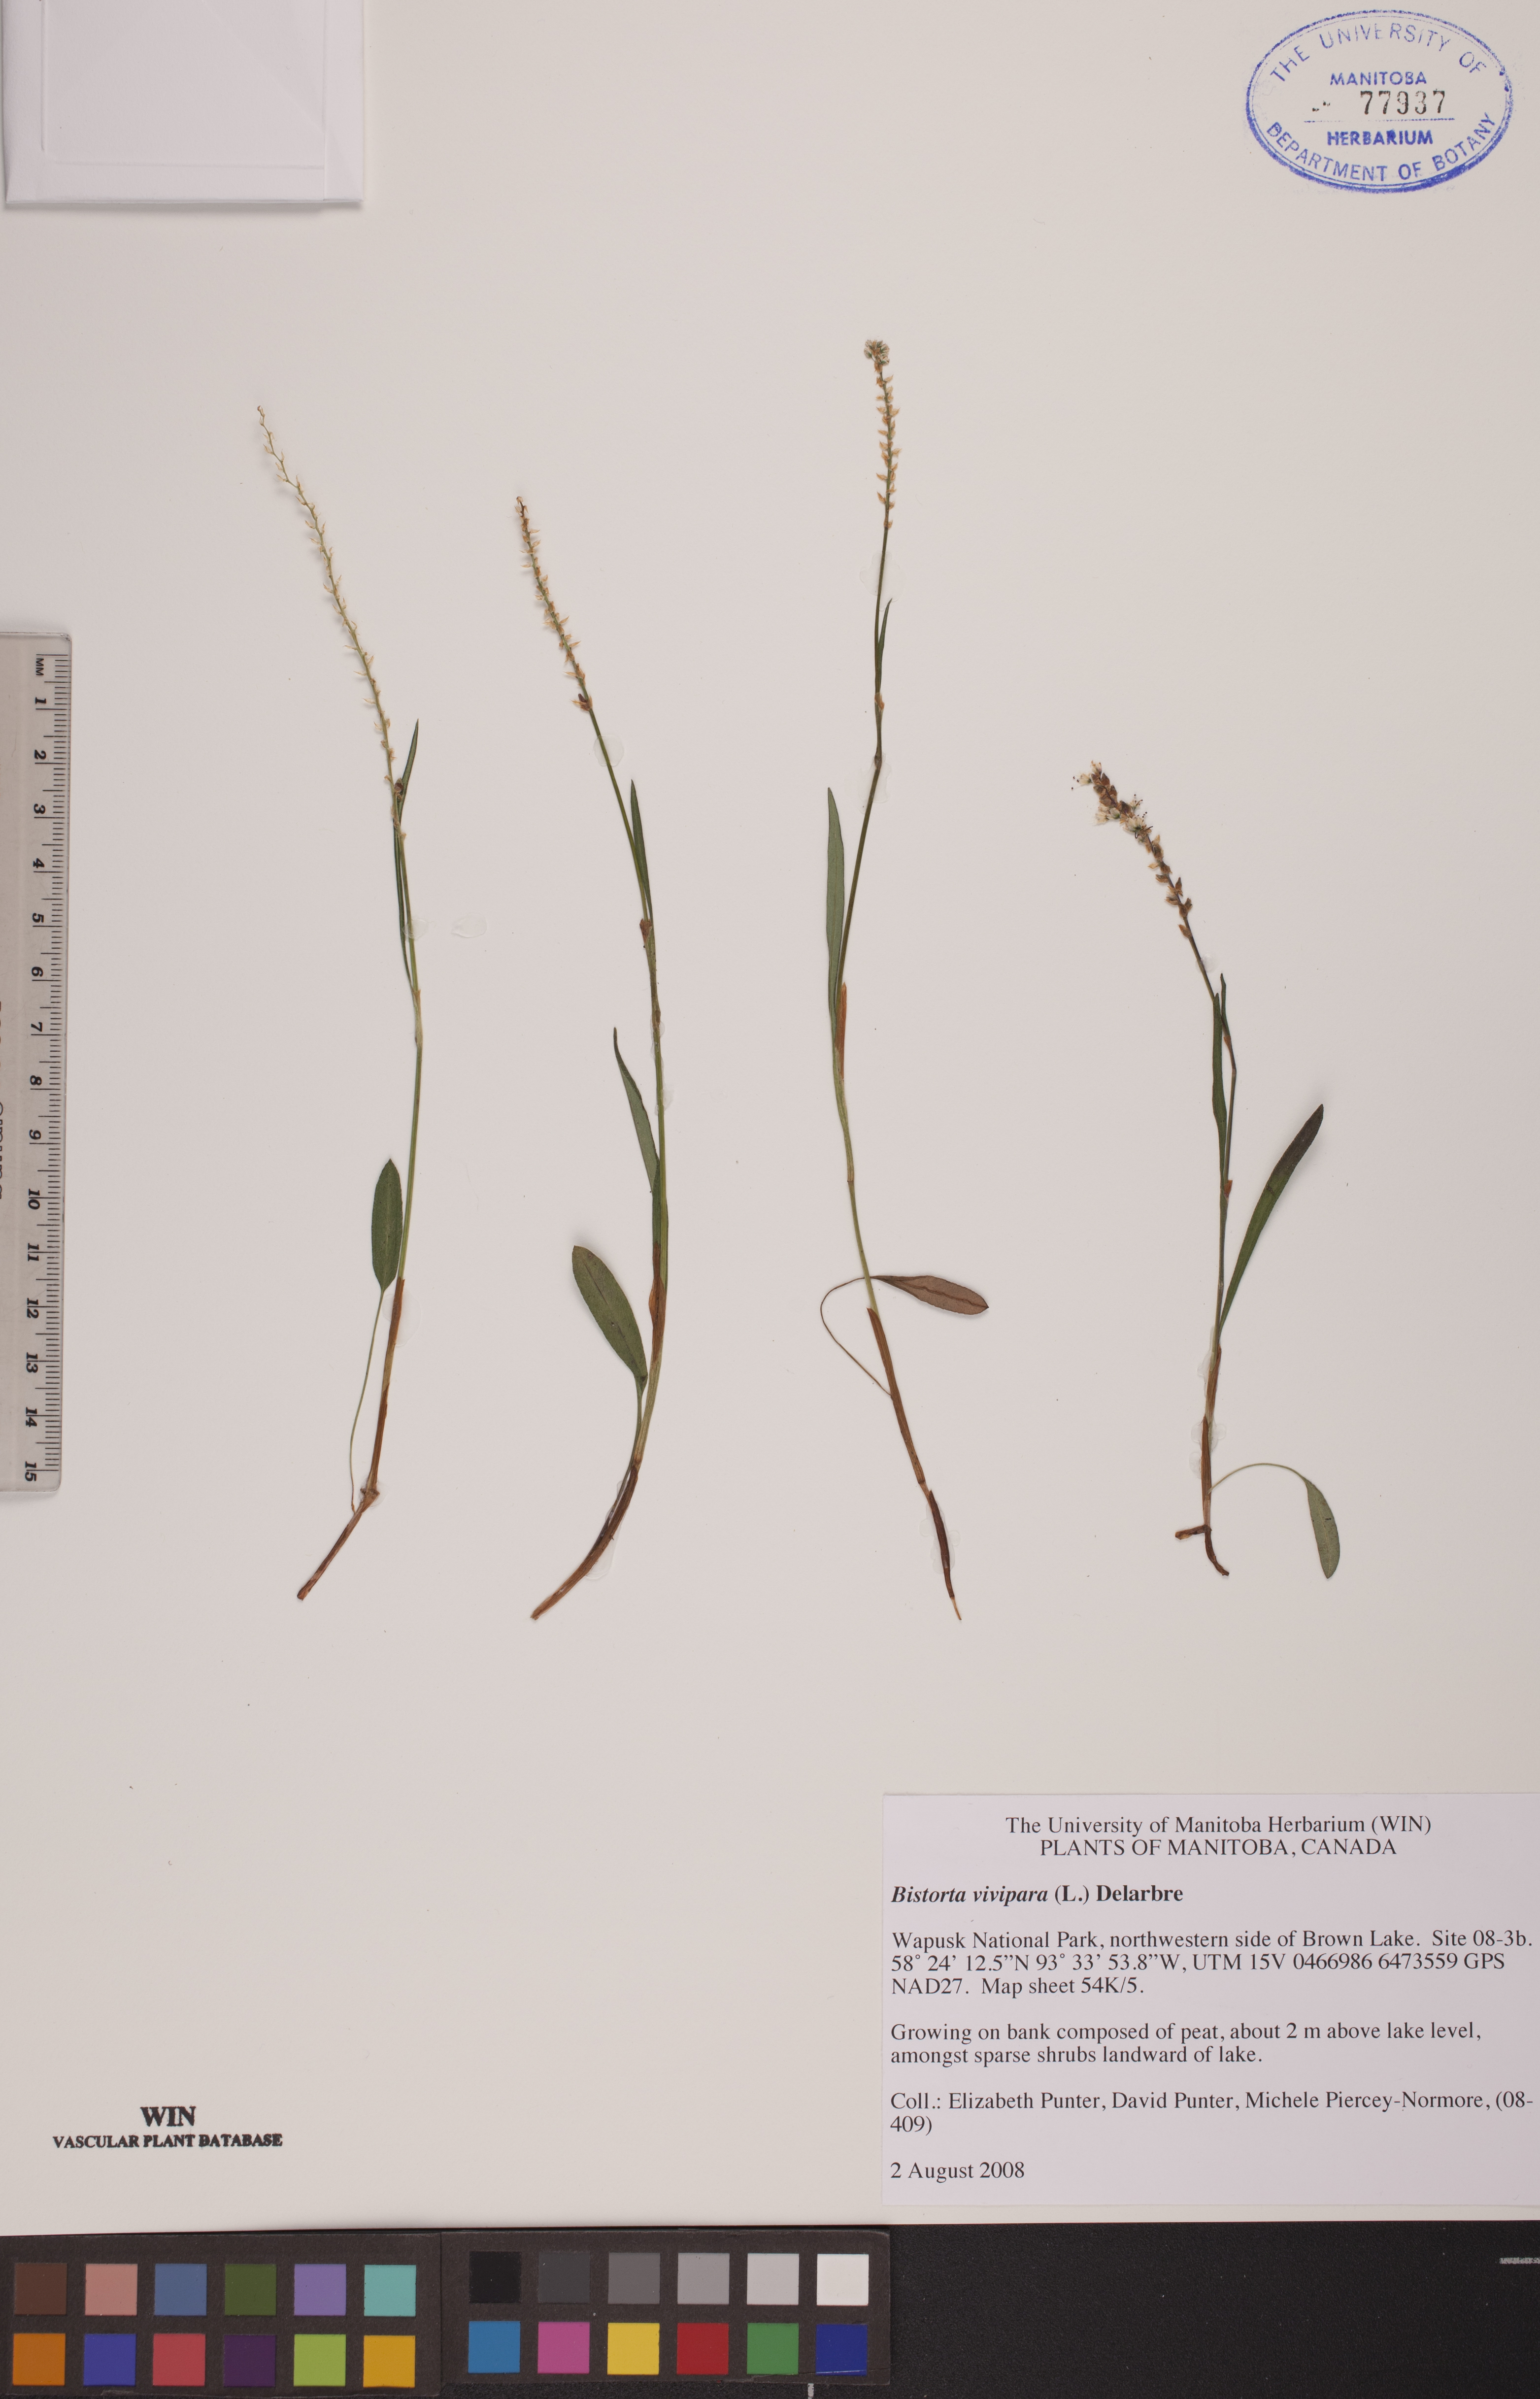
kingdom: Plantae
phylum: Tracheophyta
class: Magnoliopsida
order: Caryophyllales
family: Polygonaceae
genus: Bistorta
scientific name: Bistorta vivipara
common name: Alpine bistort
